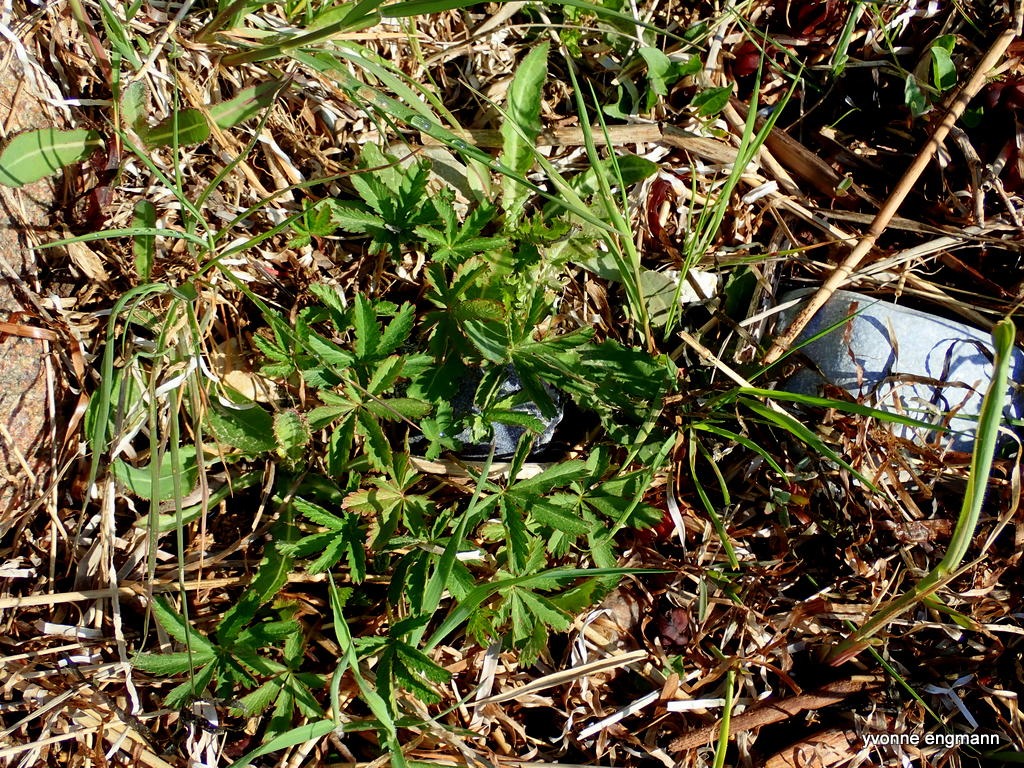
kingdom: Plantae
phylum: Tracheophyta
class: Magnoliopsida
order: Rosales
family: Rosaceae
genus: Potentilla
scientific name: Potentilla reptans
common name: Krybende potentil
